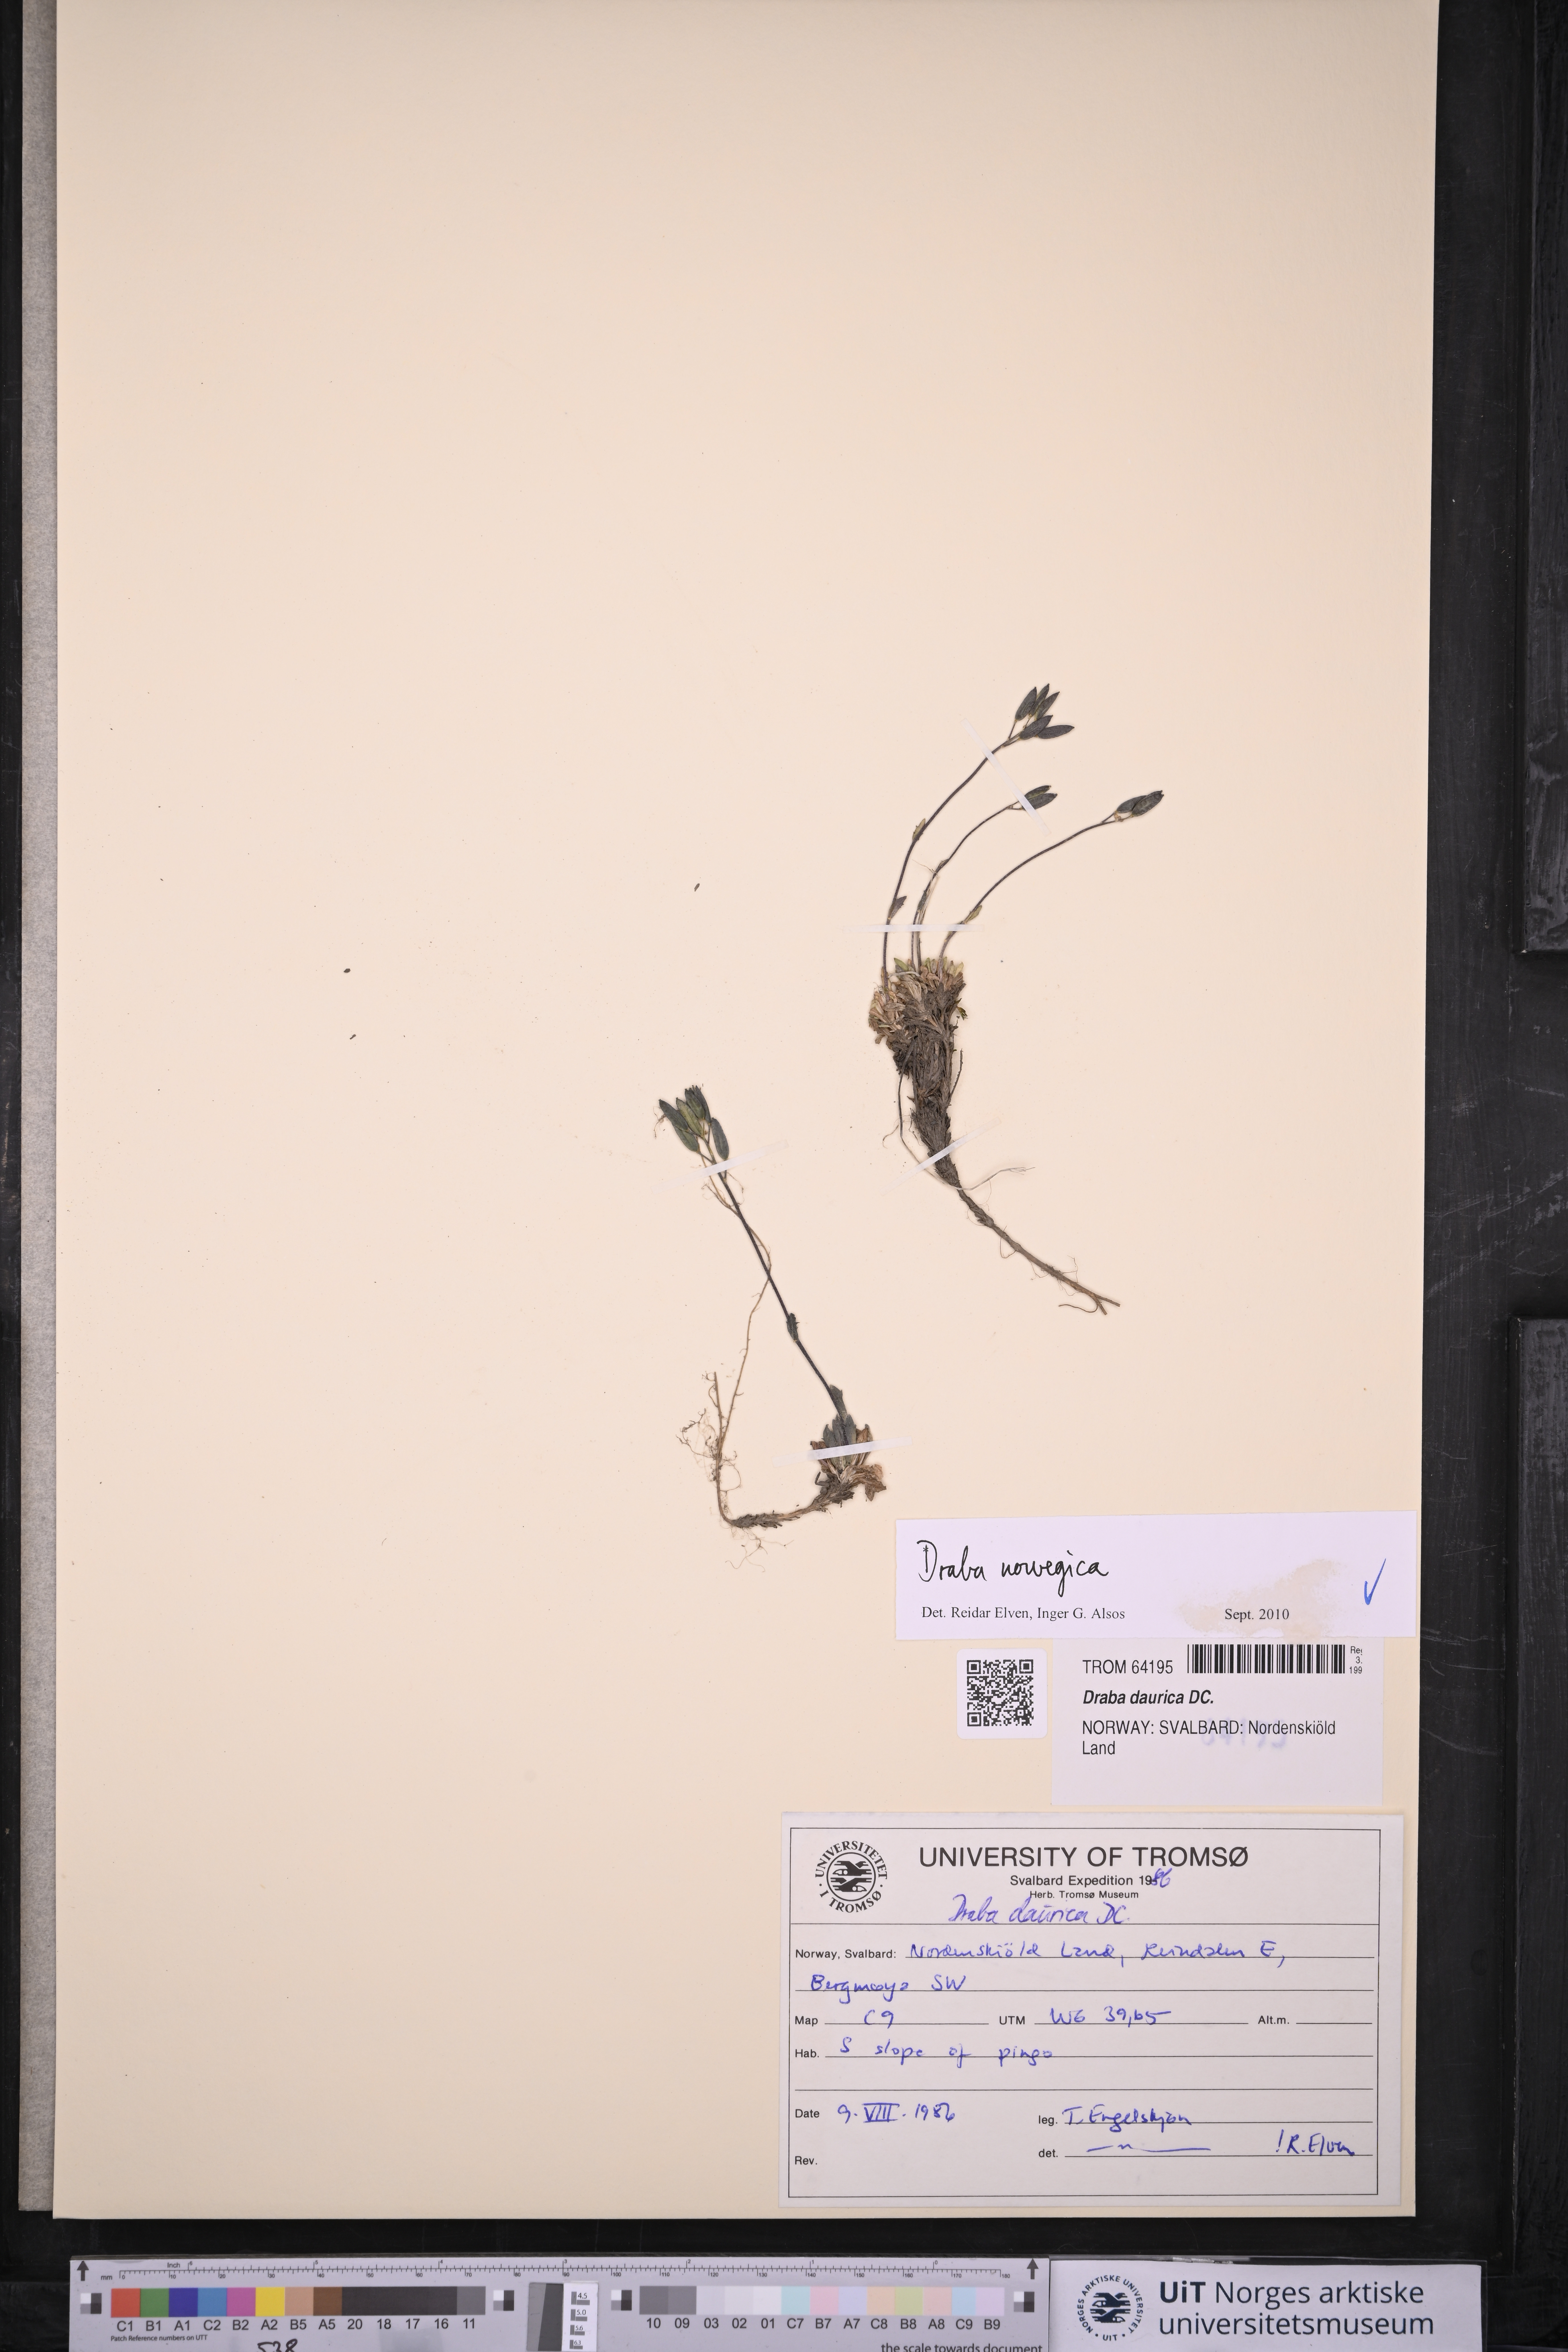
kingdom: Plantae
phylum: Tracheophyta
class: Magnoliopsida
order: Brassicales
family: Brassicaceae
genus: Draba
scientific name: Draba norvegica
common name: Rock whitlowgrass
